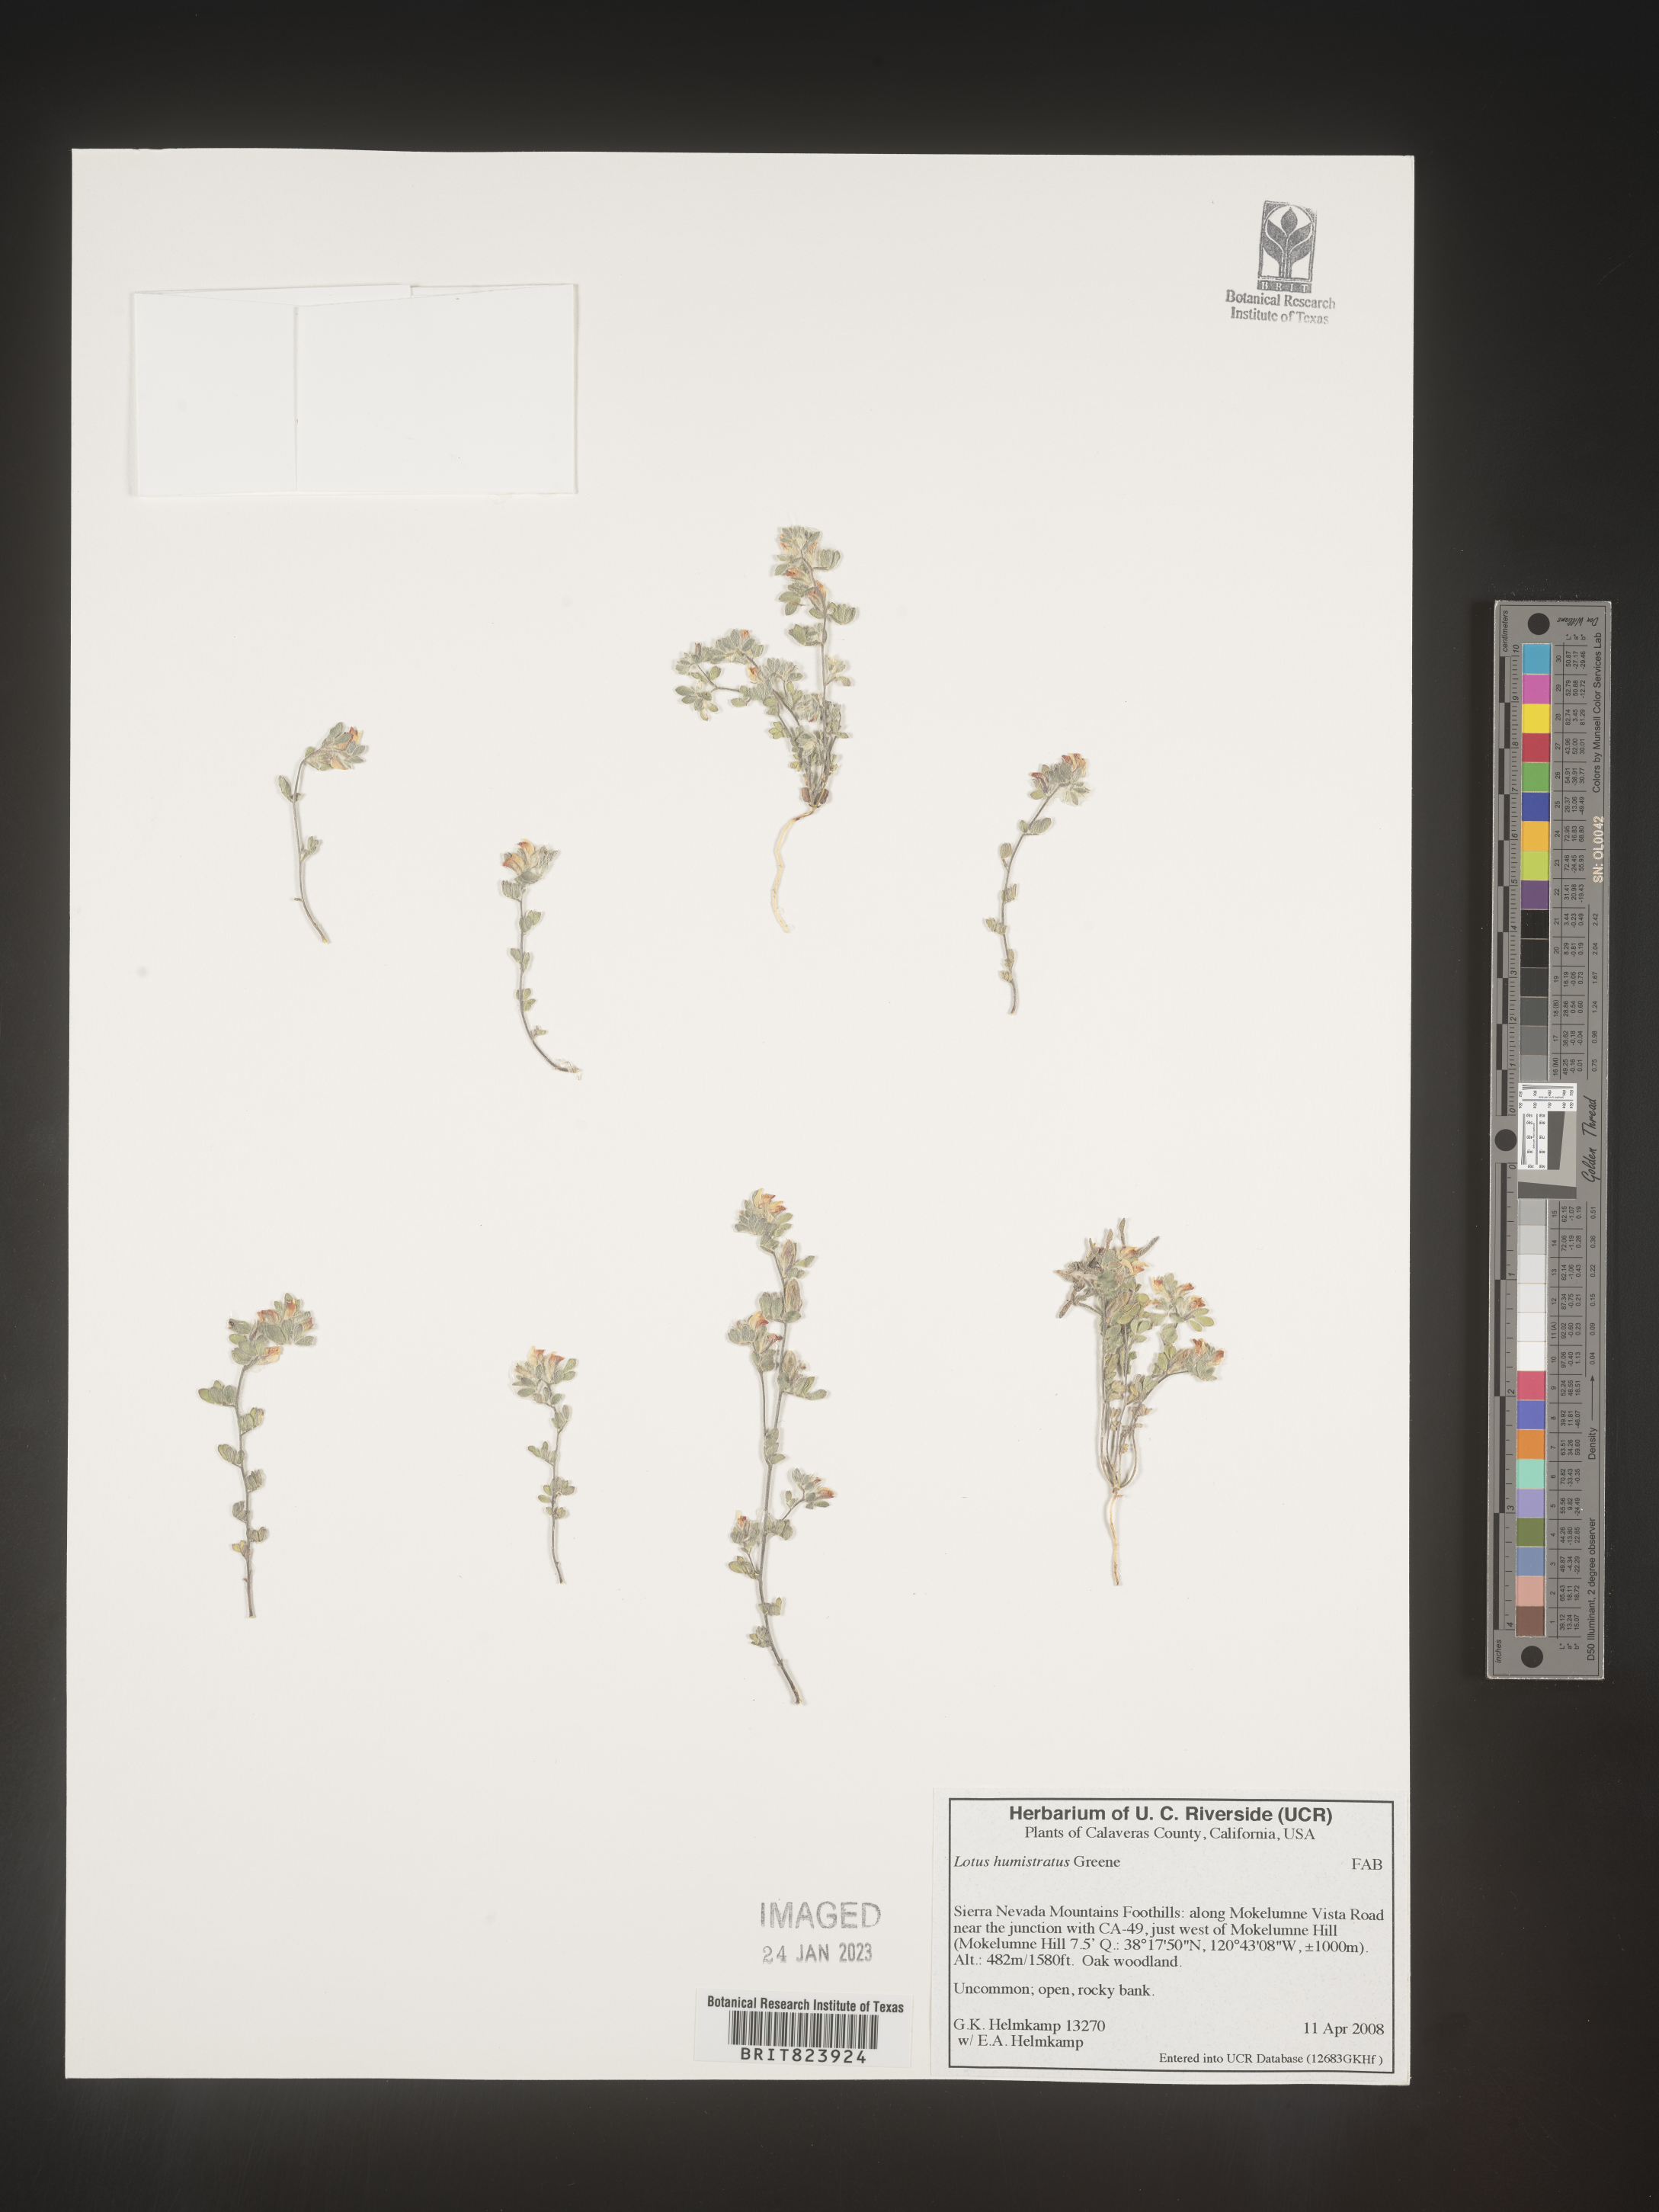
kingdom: Plantae
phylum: Tracheophyta
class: Magnoliopsida
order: Fabales
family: Fabaceae
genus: Acmispon
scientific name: Acmispon brachycarpus
